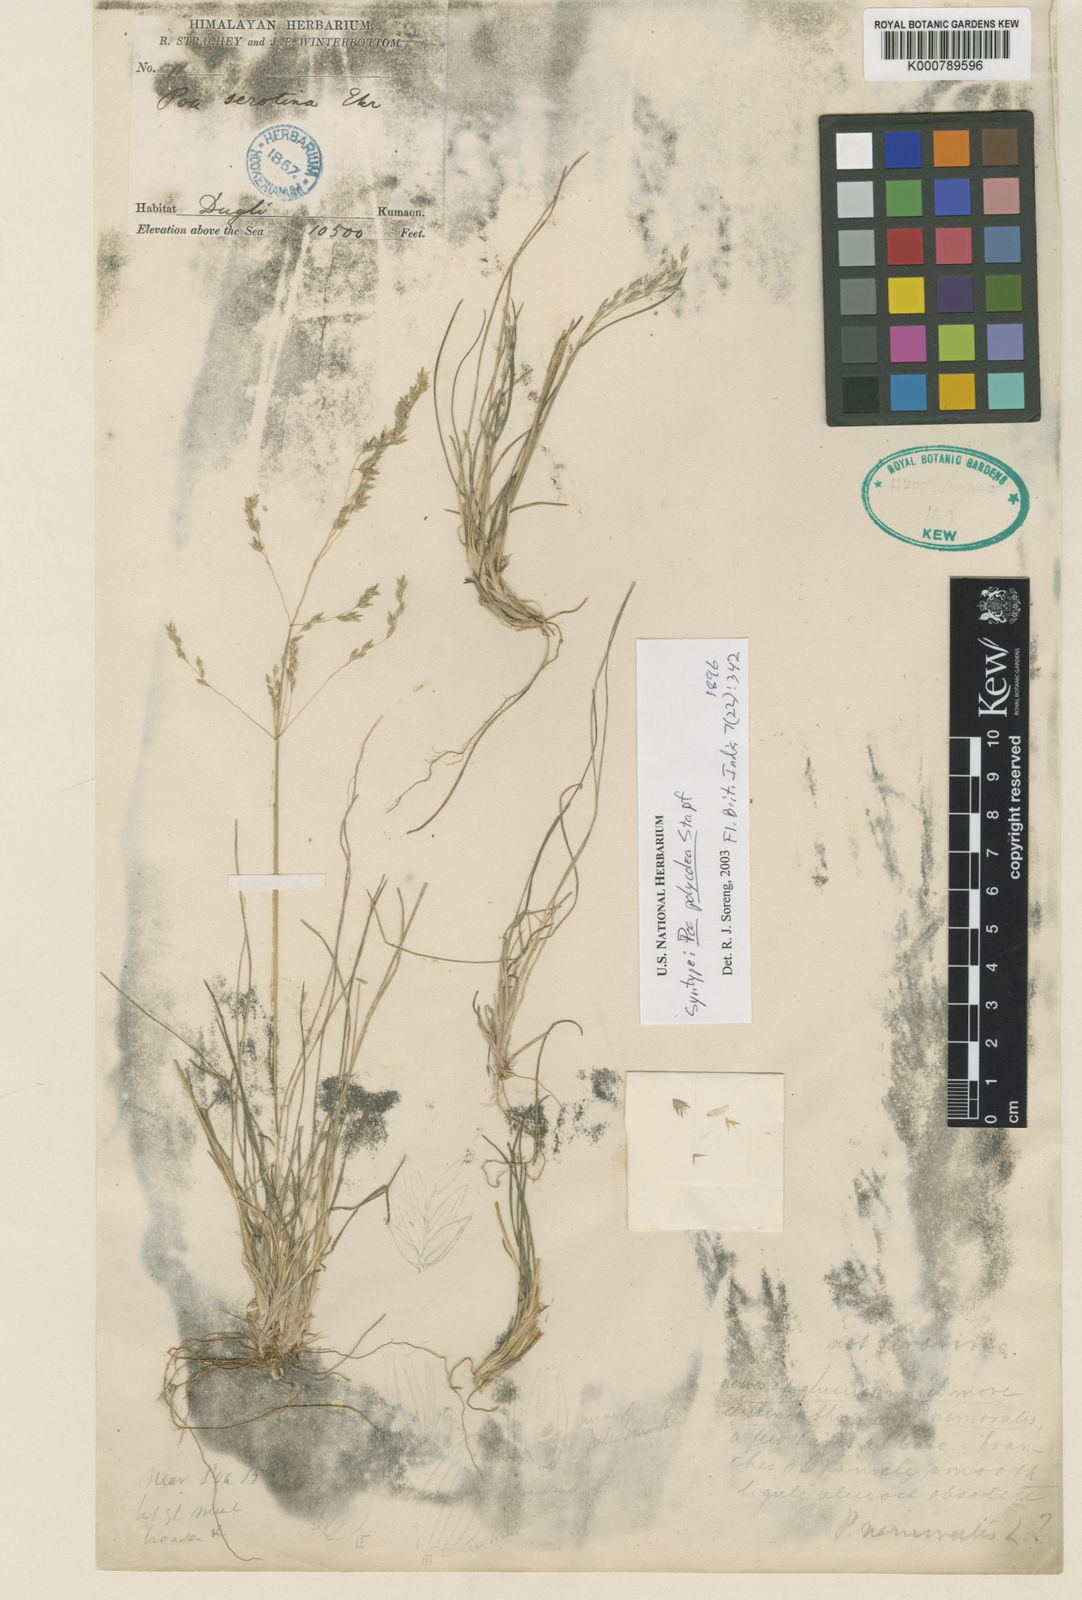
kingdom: Plantae
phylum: Tracheophyta
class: Liliopsida
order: Poales
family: Poaceae
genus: Poa
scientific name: Poa polycolea
